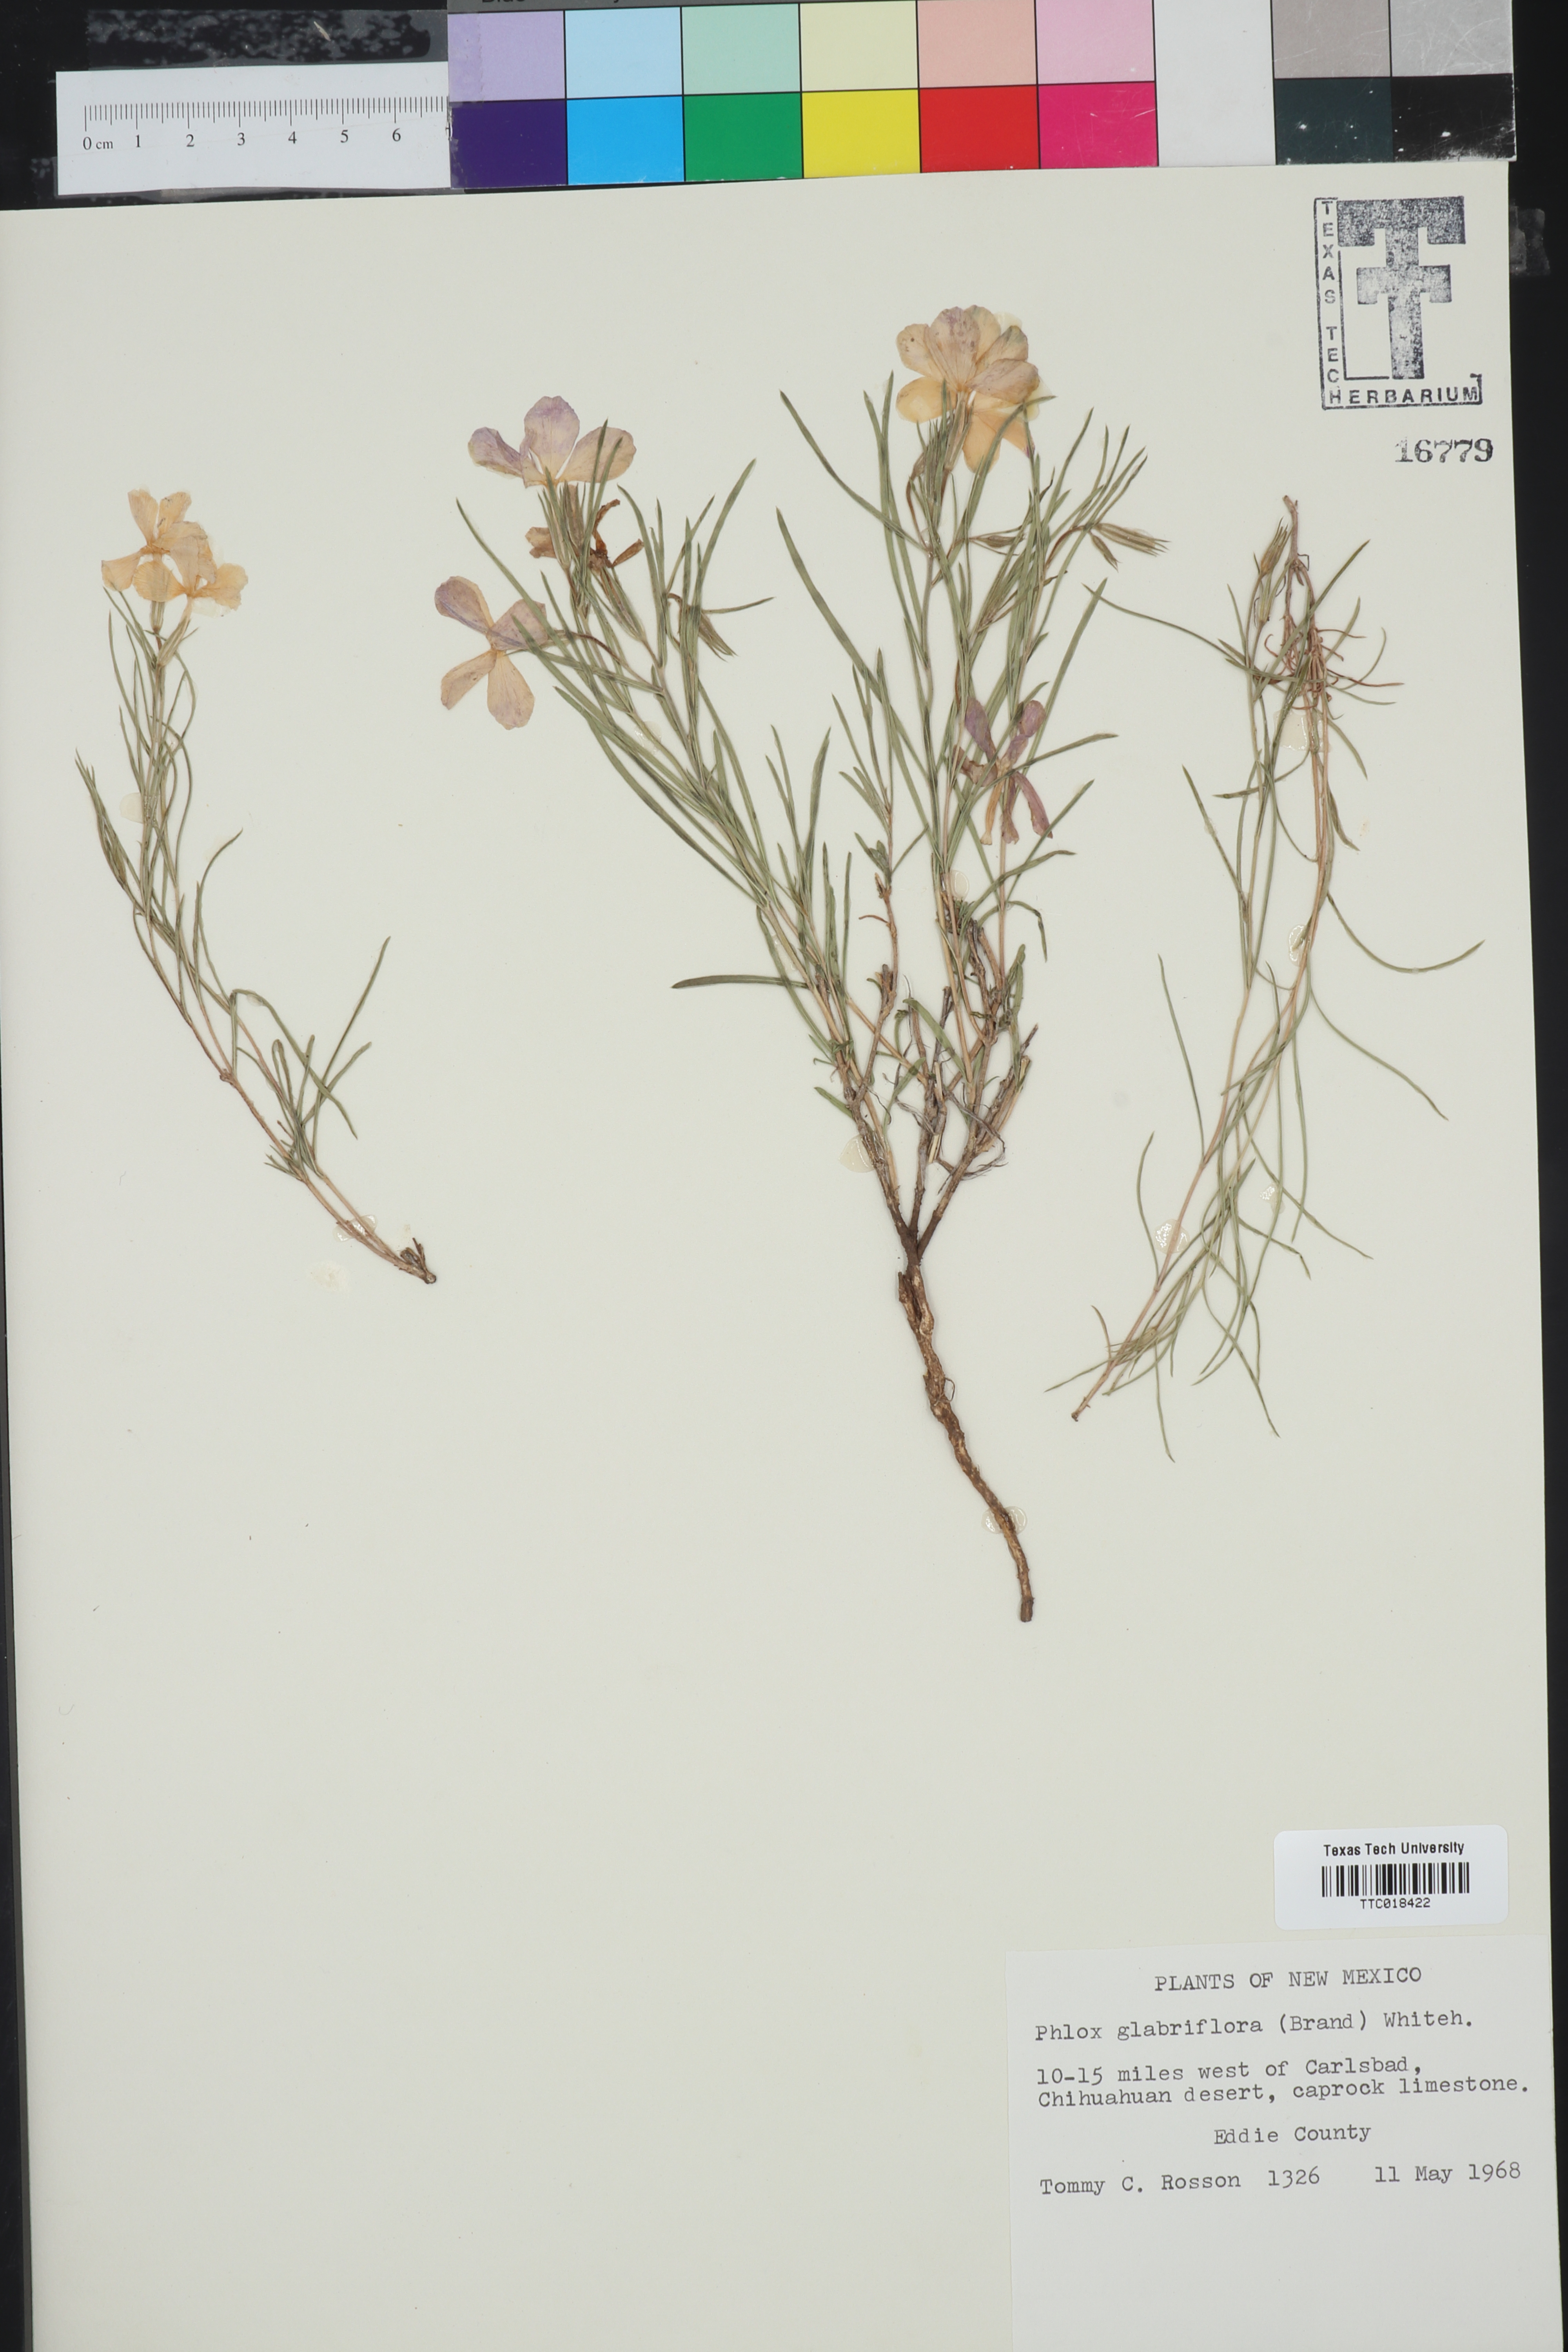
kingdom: Plantae
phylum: Tracheophyta
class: Magnoliopsida
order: Ericales
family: Polemoniaceae
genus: Phlox
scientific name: Phlox glabriflora
